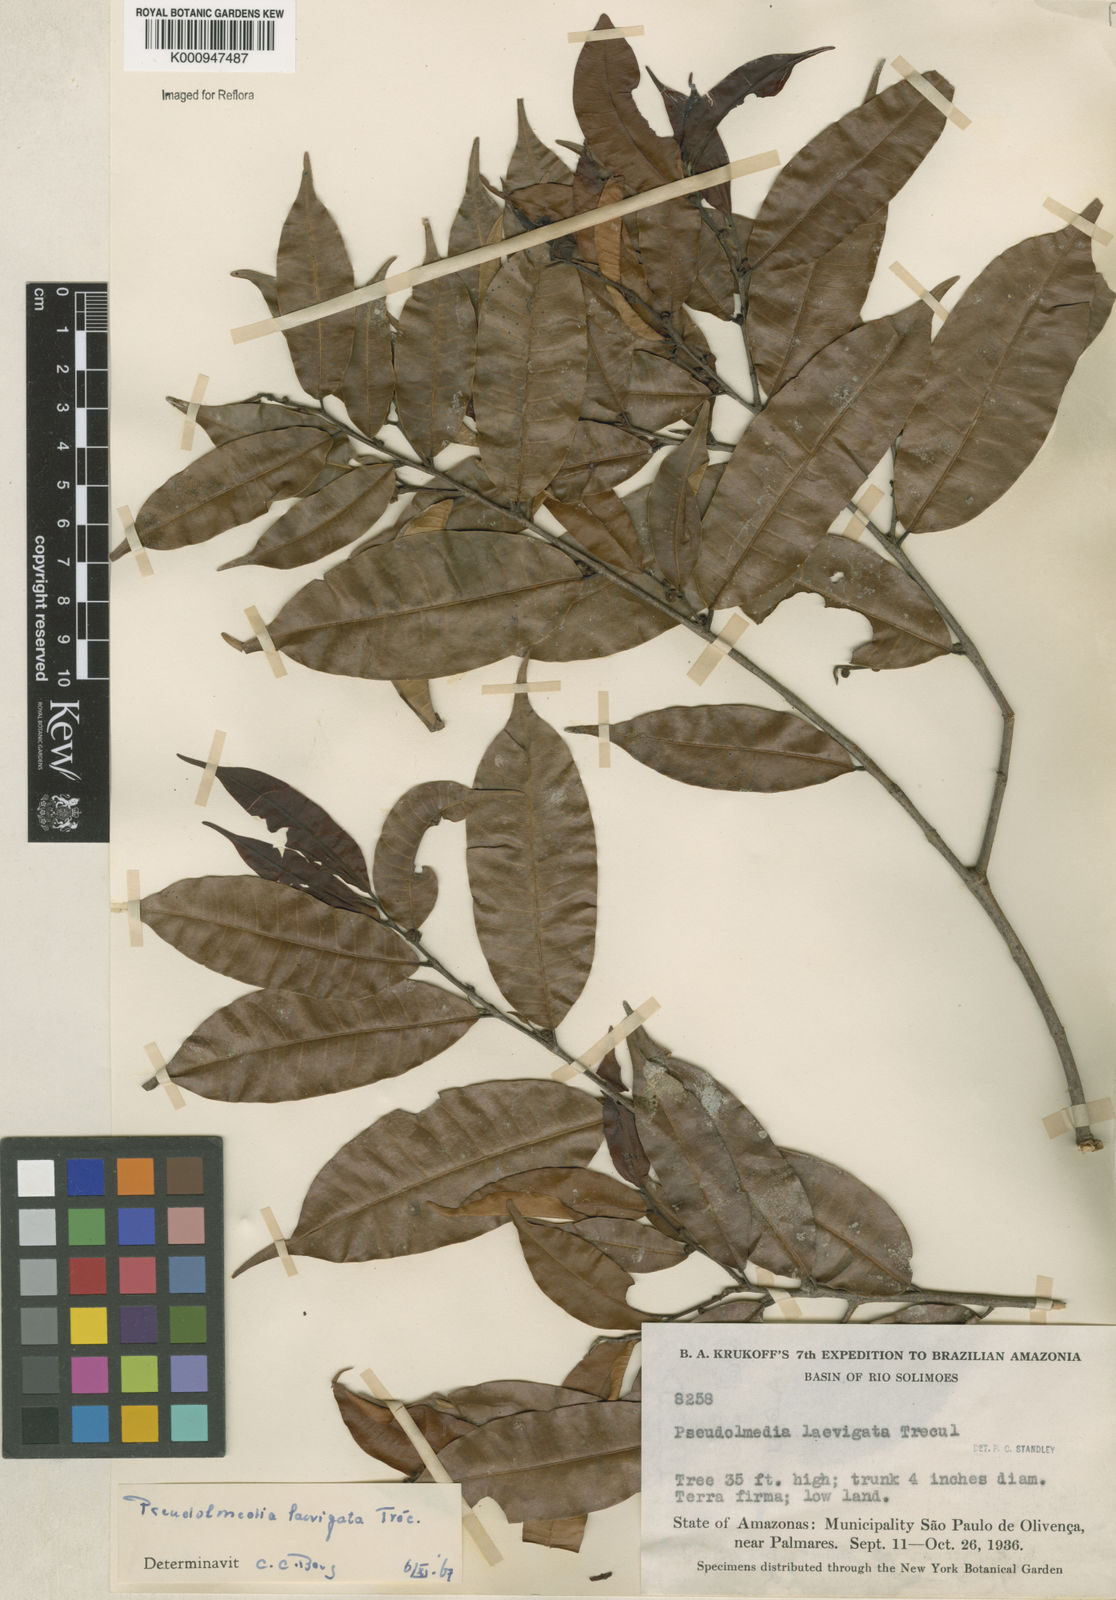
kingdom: Plantae
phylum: Tracheophyta
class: Magnoliopsida
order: Rosales
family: Moraceae
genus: Pseudolmedia
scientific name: Pseudolmedia
